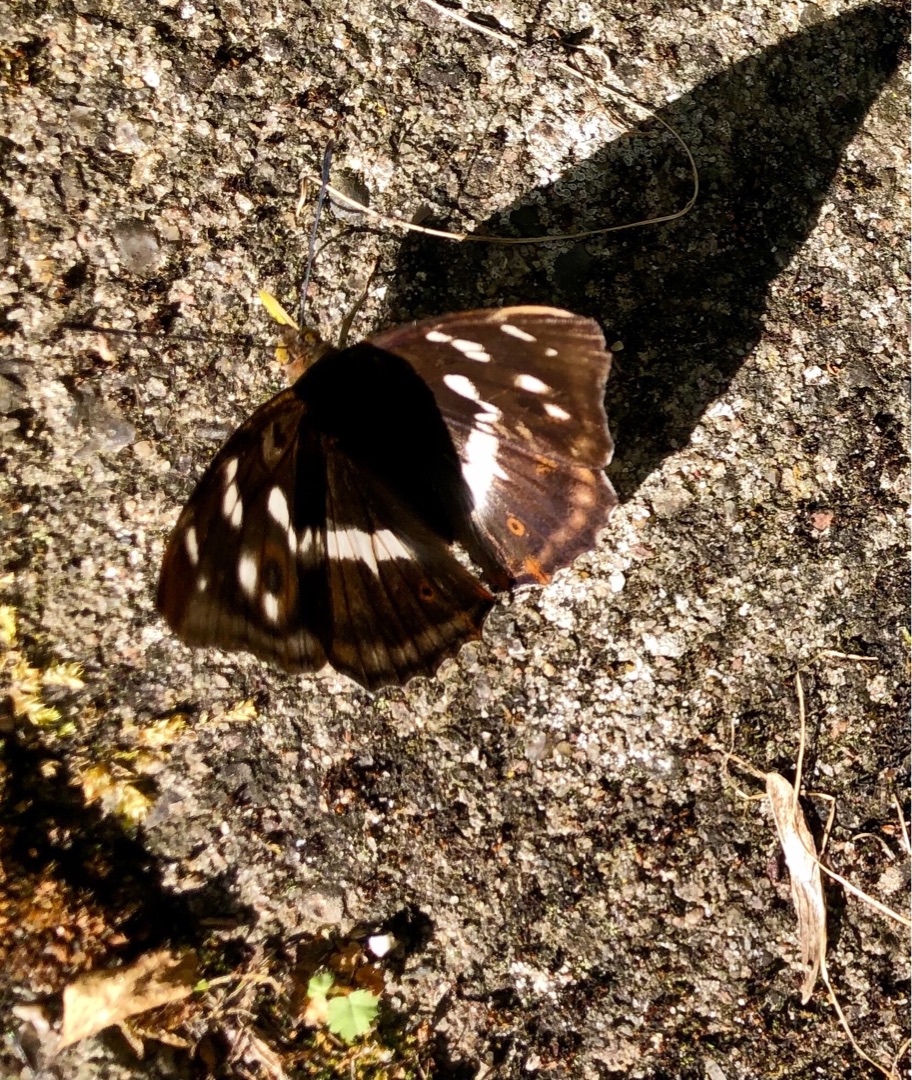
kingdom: Animalia
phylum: Arthropoda
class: Insecta
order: Lepidoptera
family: Nymphalidae
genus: Apatura
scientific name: Apatura iris
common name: Iris
